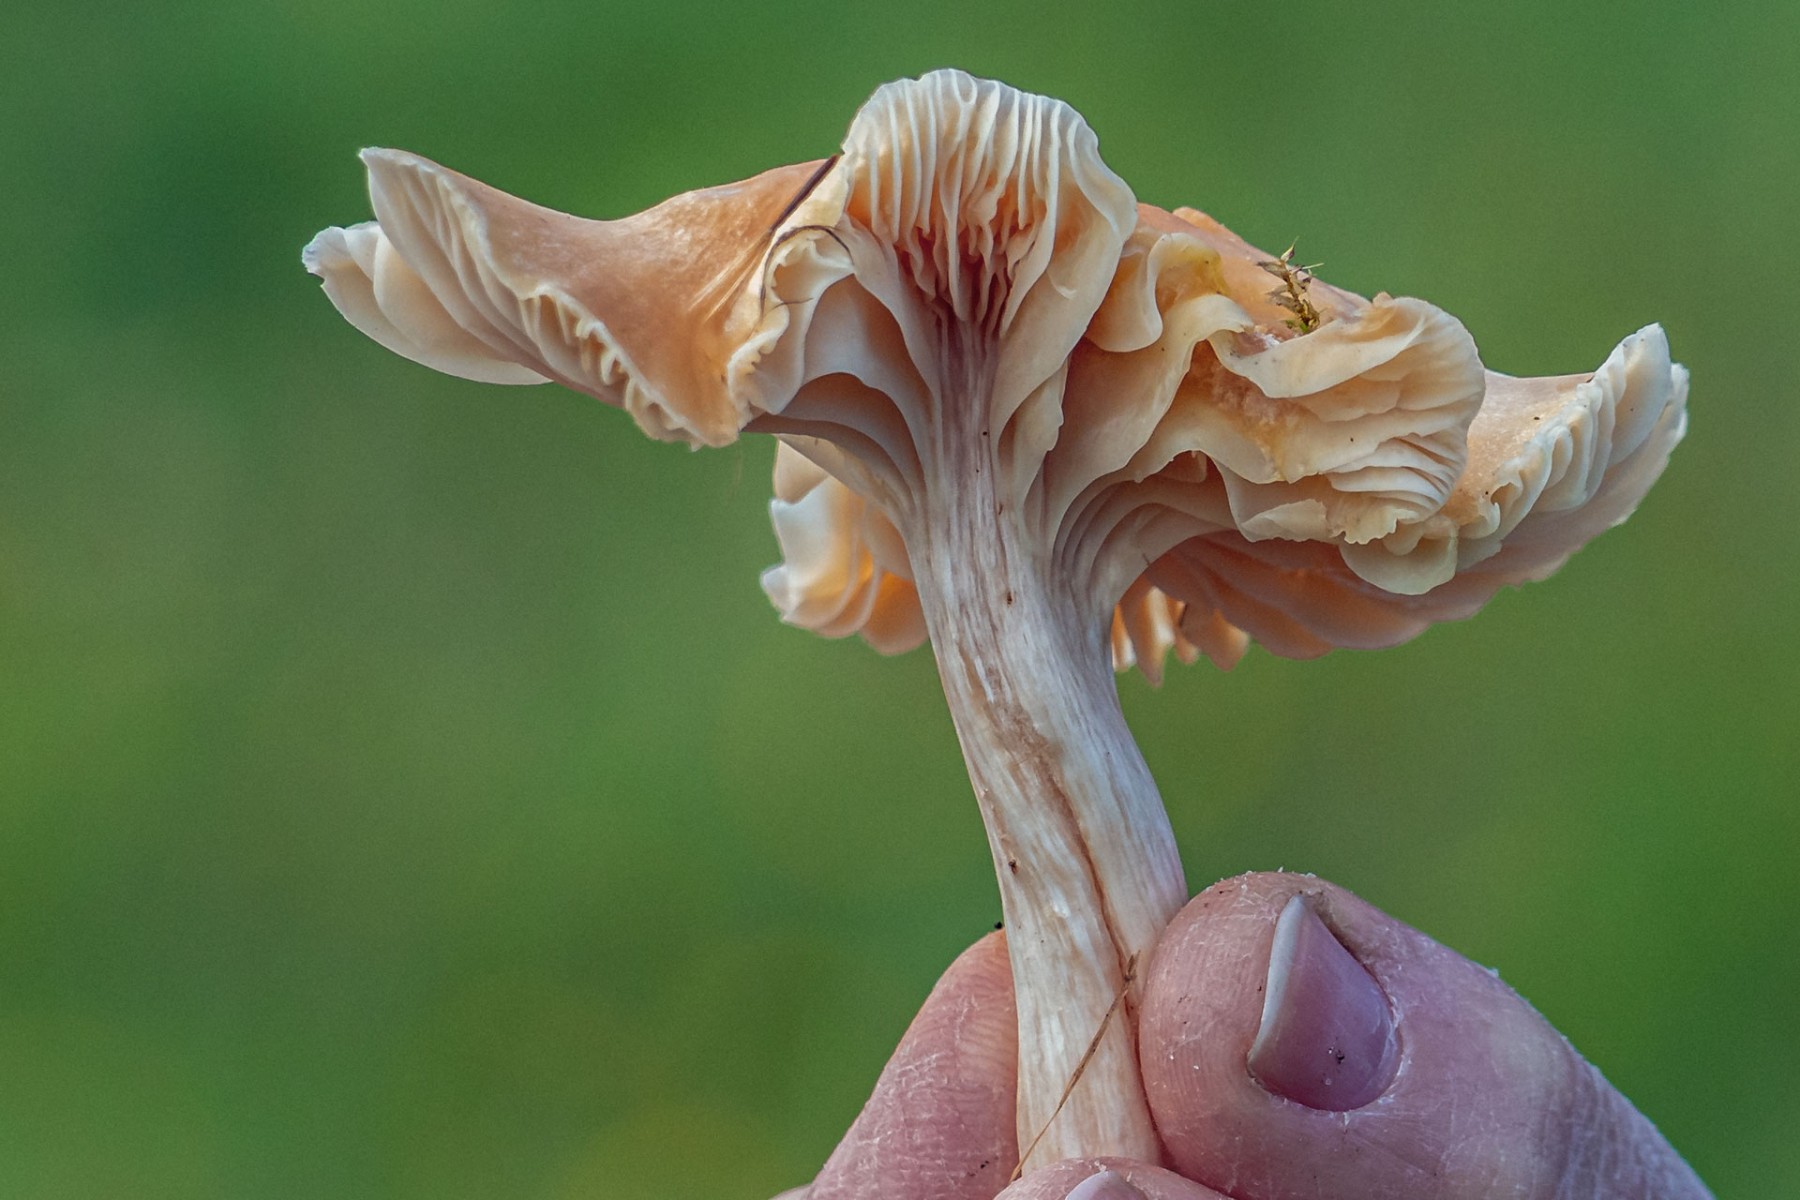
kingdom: Fungi
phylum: Basidiomycota
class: Agaricomycetes
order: Agaricales
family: Hygrophoraceae
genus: Cuphophyllus
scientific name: Cuphophyllus pratensis
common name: eng-vokshat
